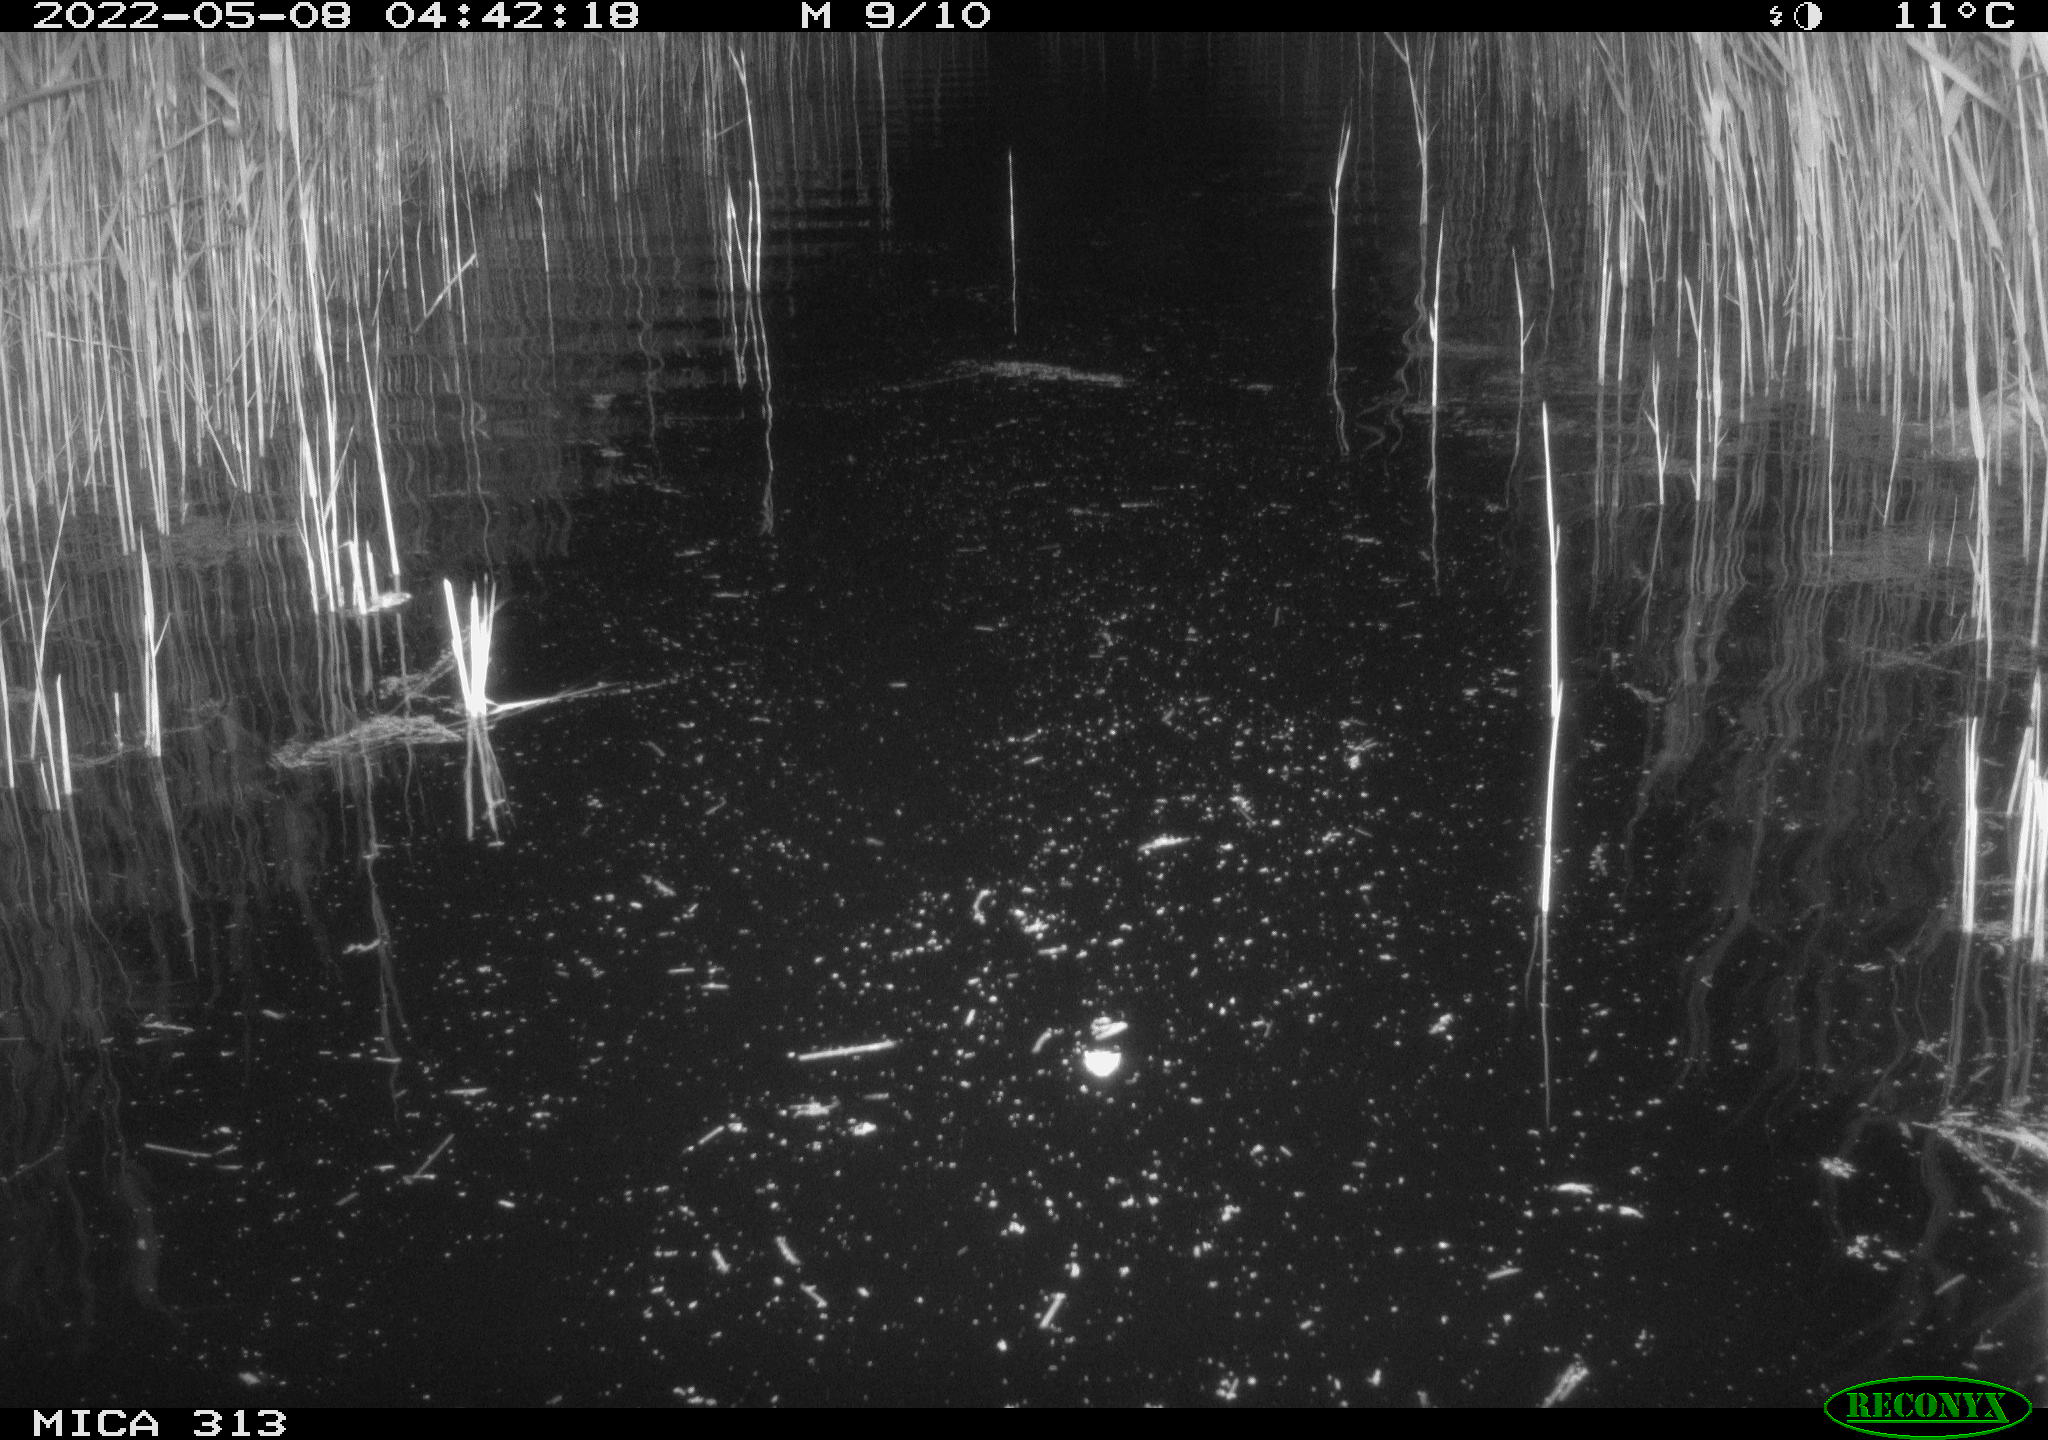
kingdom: Animalia
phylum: Chordata
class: Aves
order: Anseriformes
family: Anatidae
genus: Anas
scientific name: Anas platyrhynchos
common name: Mallard
